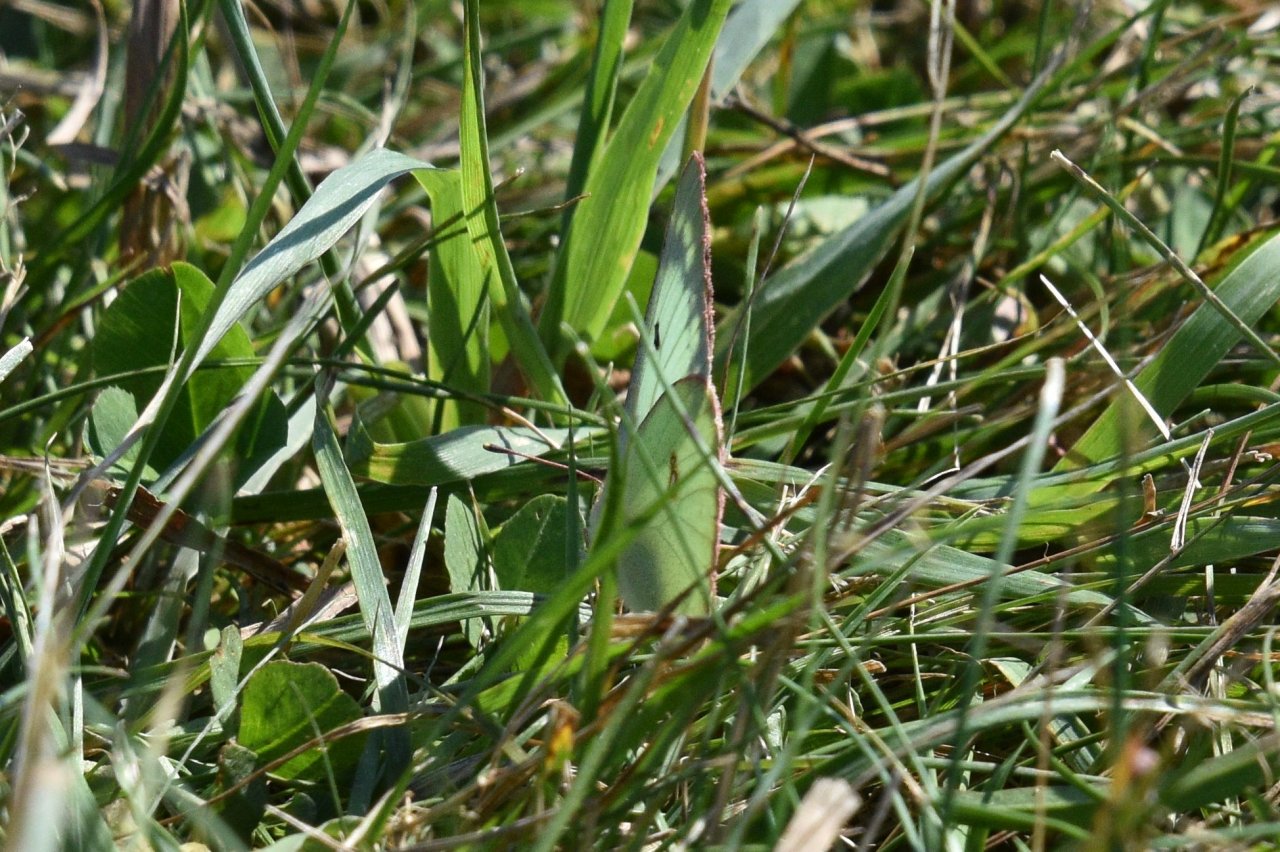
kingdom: Animalia
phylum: Arthropoda
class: Insecta
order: Lepidoptera
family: Pieridae
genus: Colias
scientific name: Colias philodice
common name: Clouded Sulphur
